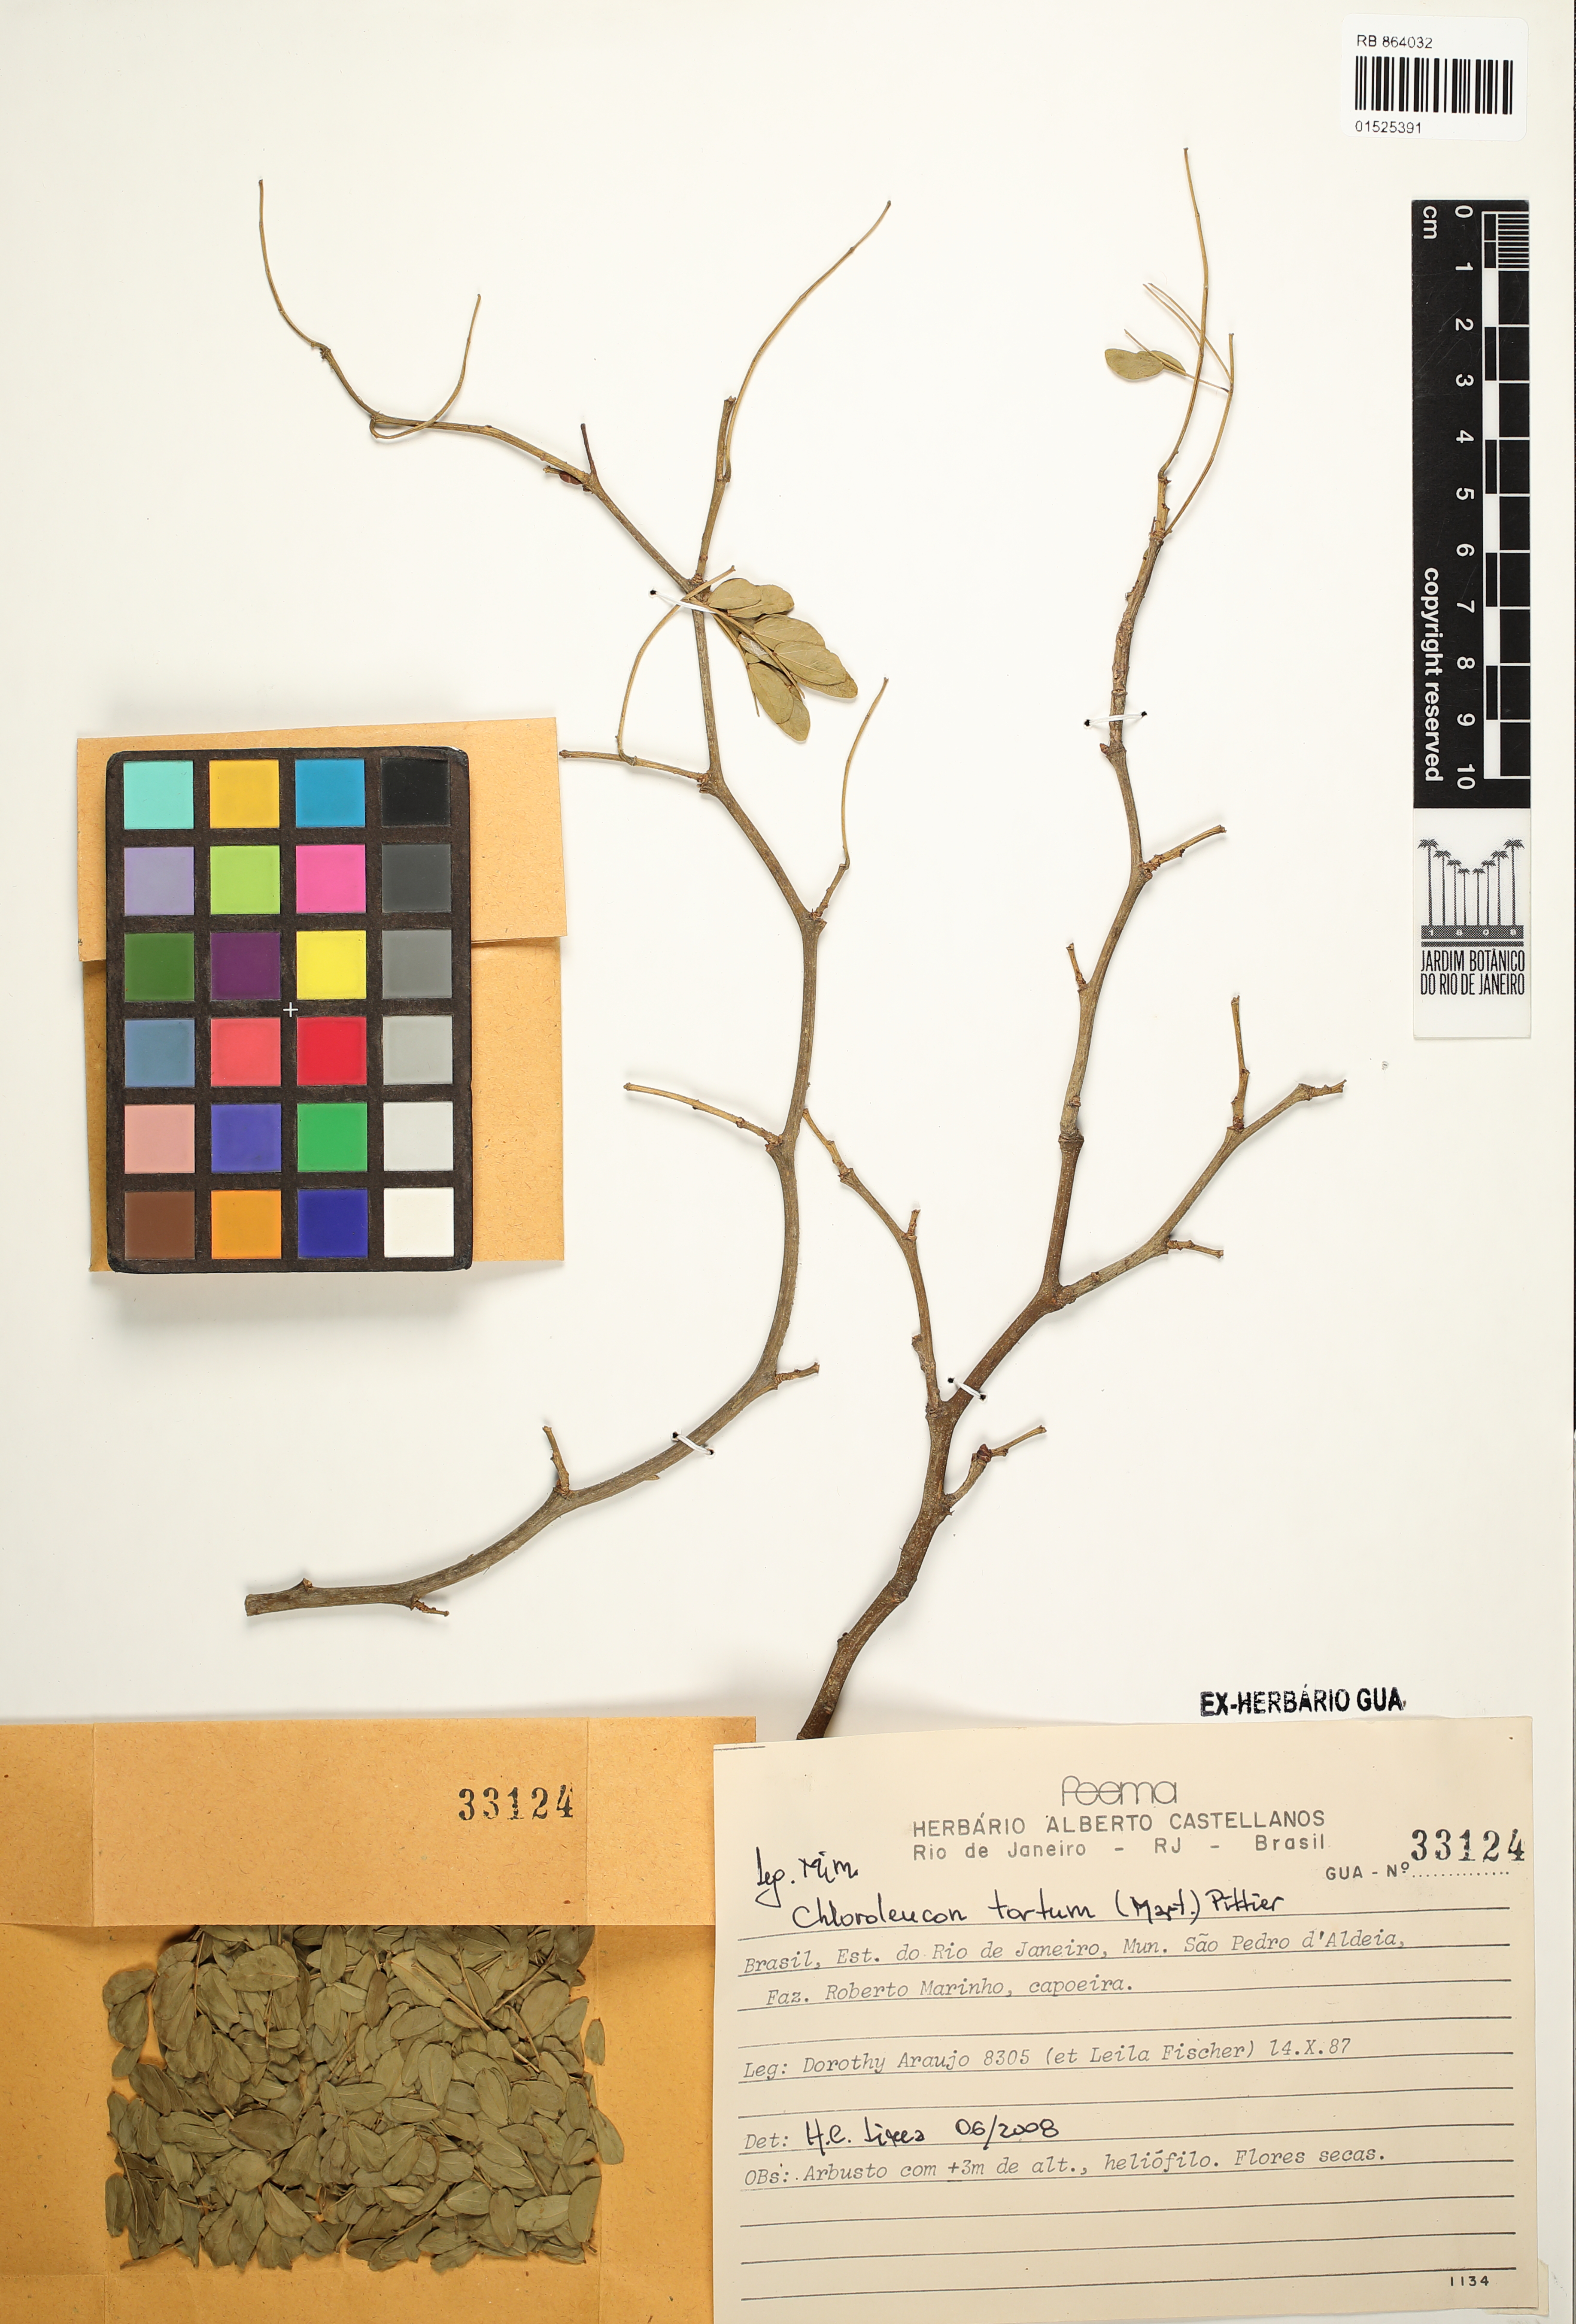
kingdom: Plantae
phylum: Tracheophyta
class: Magnoliopsida
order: Fabales
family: Fabaceae
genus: Chloroleucon
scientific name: Chloroleucon tortum
